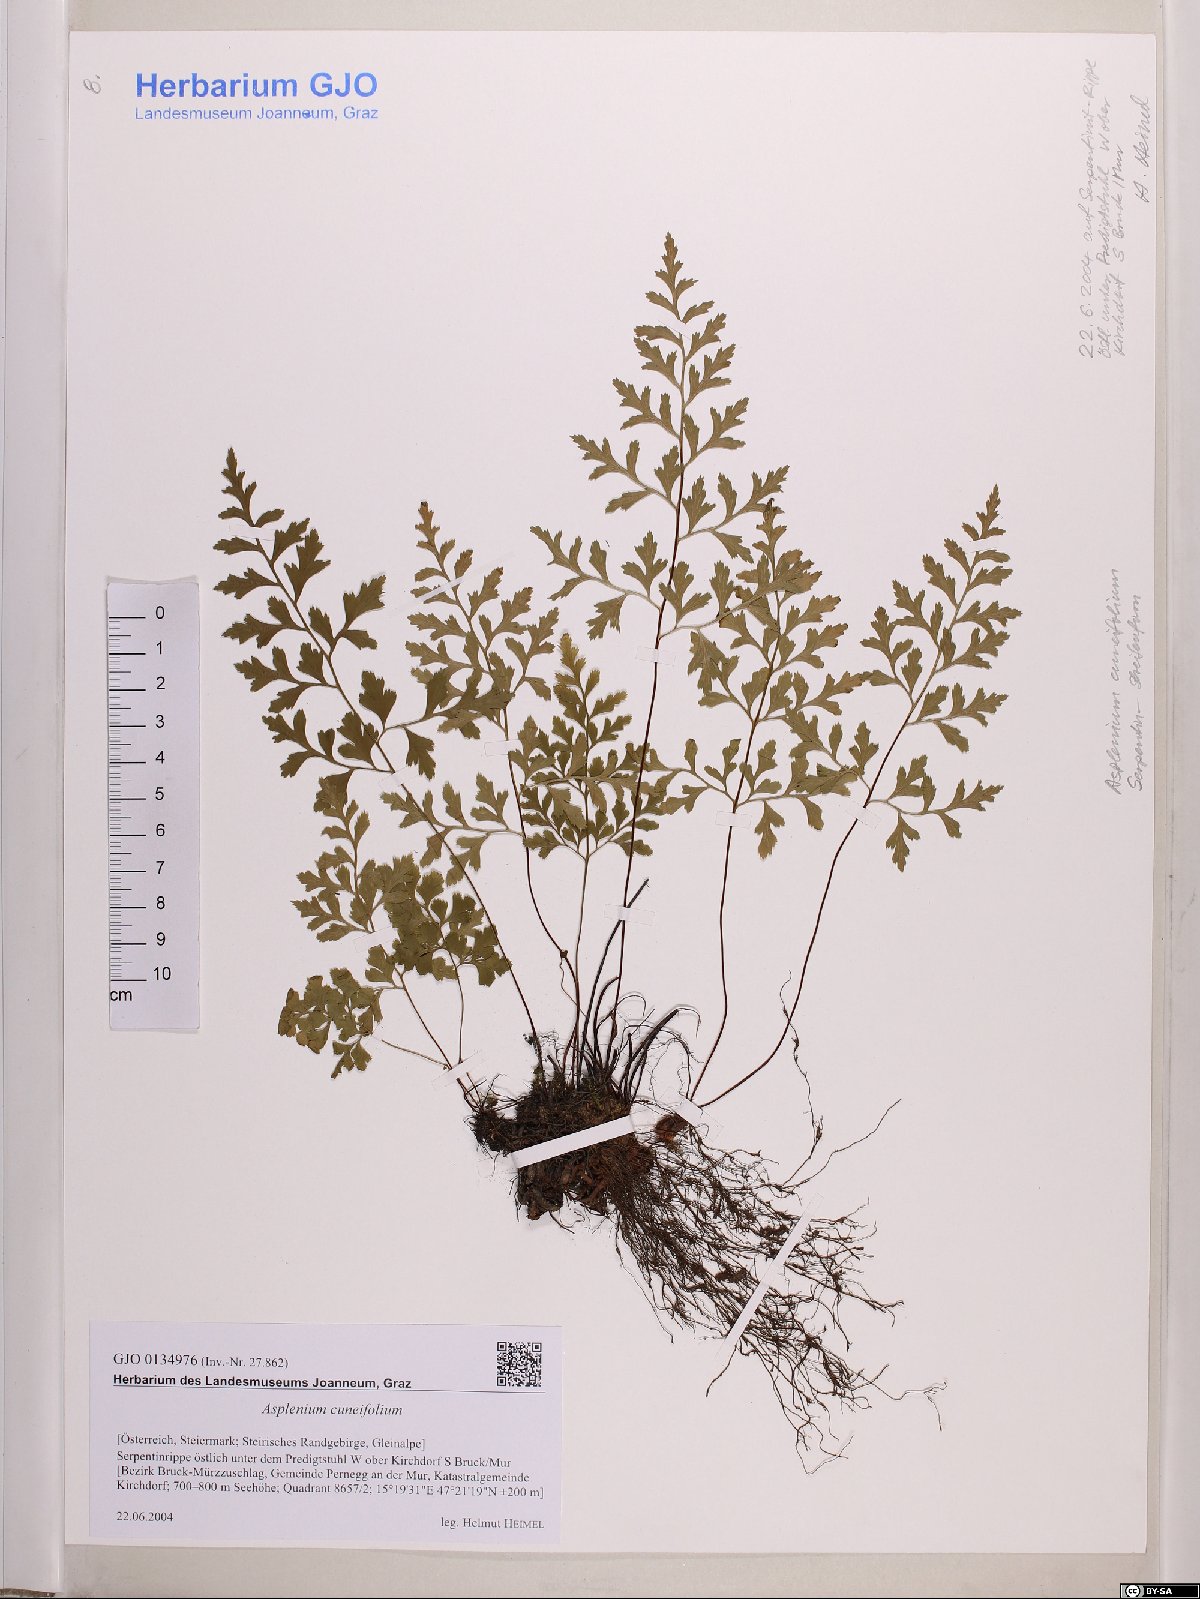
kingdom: Plantae
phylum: Tracheophyta
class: Polypodiopsida
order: Polypodiales
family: Aspleniaceae
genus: Asplenium
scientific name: Asplenium cuneifolium
